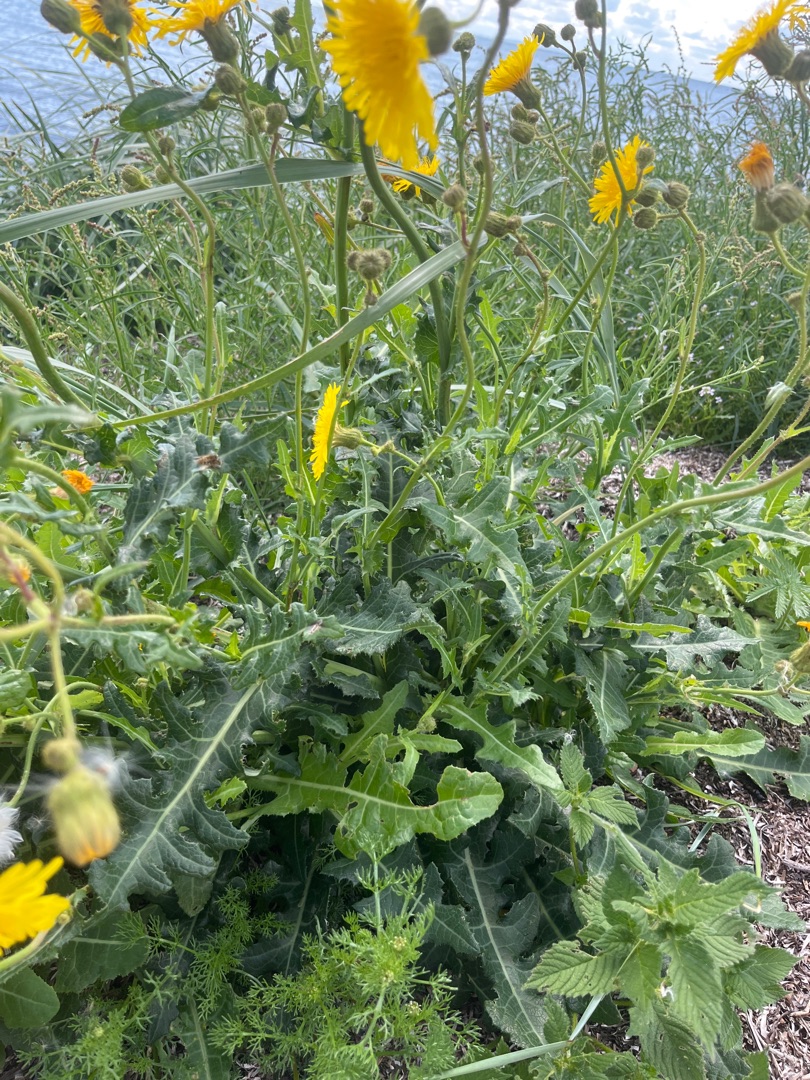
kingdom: Plantae
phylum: Tracheophyta
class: Magnoliopsida
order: Asterales
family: Asteraceae
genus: Sonchus
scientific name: Sonchus arvensis
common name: Ager-svinemælk
